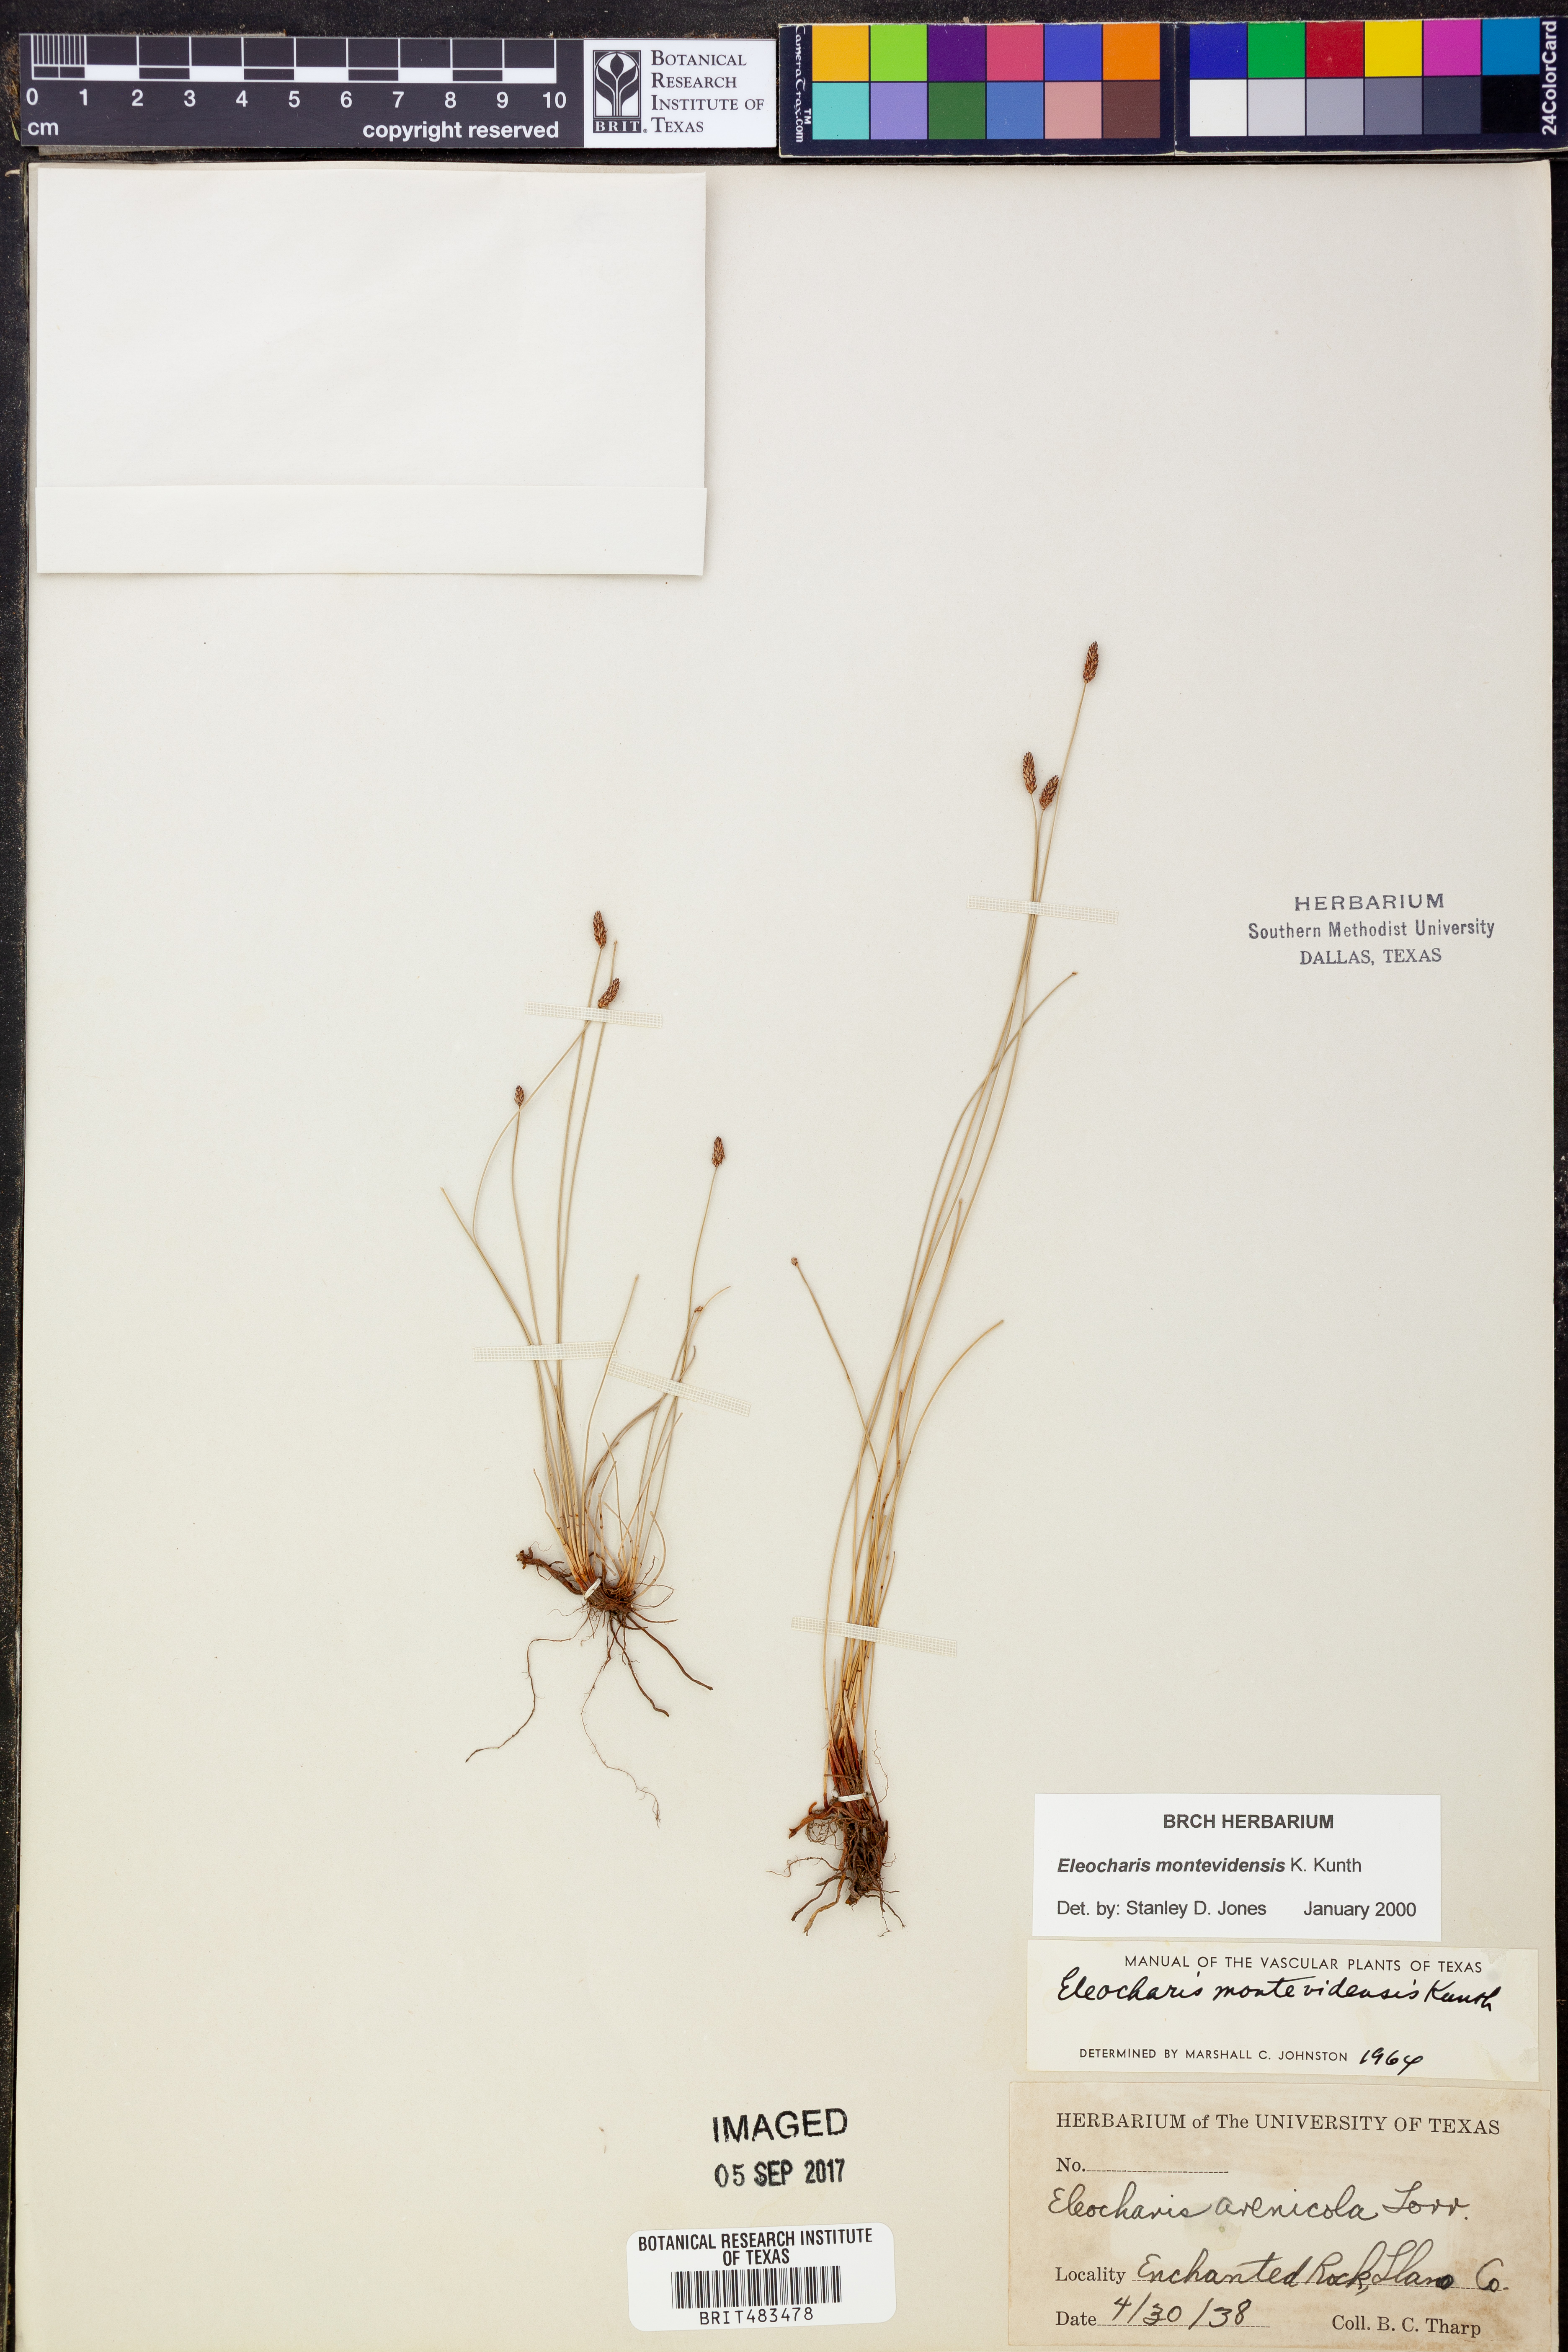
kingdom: Plantae
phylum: Tracheophyta
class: Liliopsida
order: Poales
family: Cyperaceae
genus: Eleocharis
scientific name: Eleocharis montevidensis
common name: Sand spike-rush
